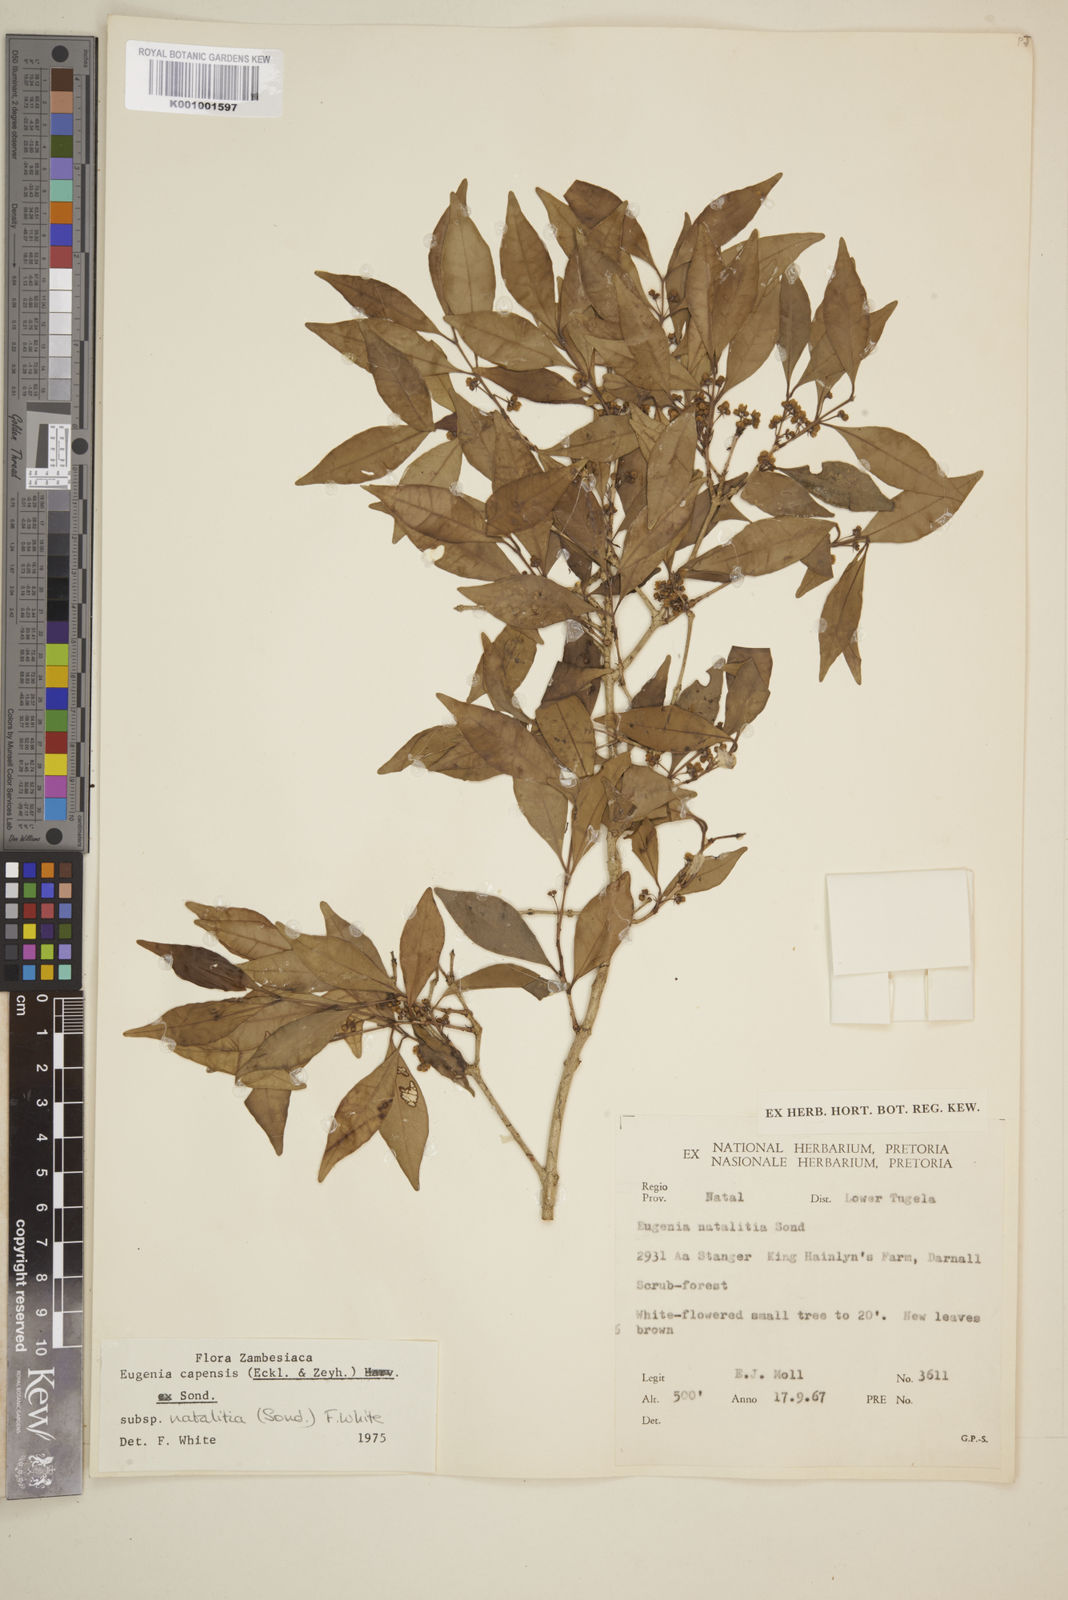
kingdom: Plantae
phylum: Tracheophyta
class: Magnoliopsida
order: Myrtales
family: Myrtaceae
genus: Eugenia
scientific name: Eugenia natalitia
